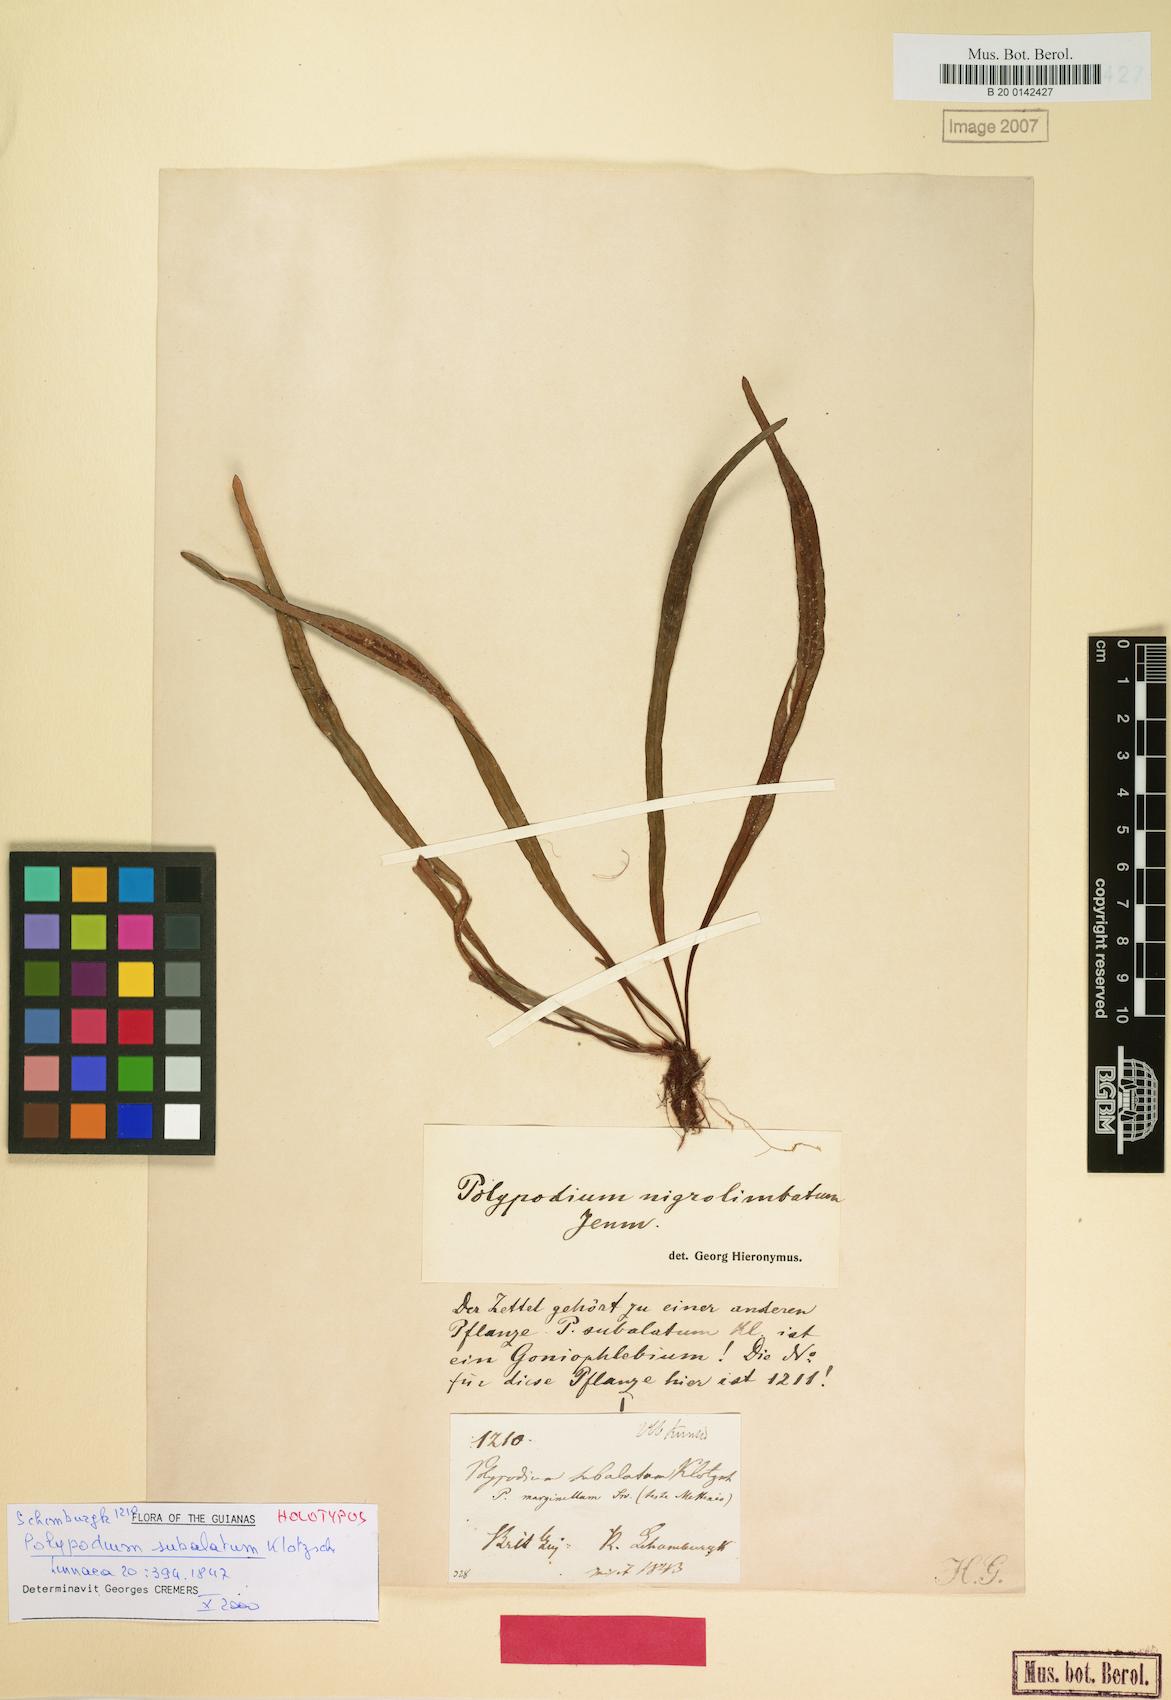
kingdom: Plantae
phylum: Tracheophyta
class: Polypodiopsida
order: Polypodiales
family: Polypodiaceae
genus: Grammitis
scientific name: Grammitis limbata
